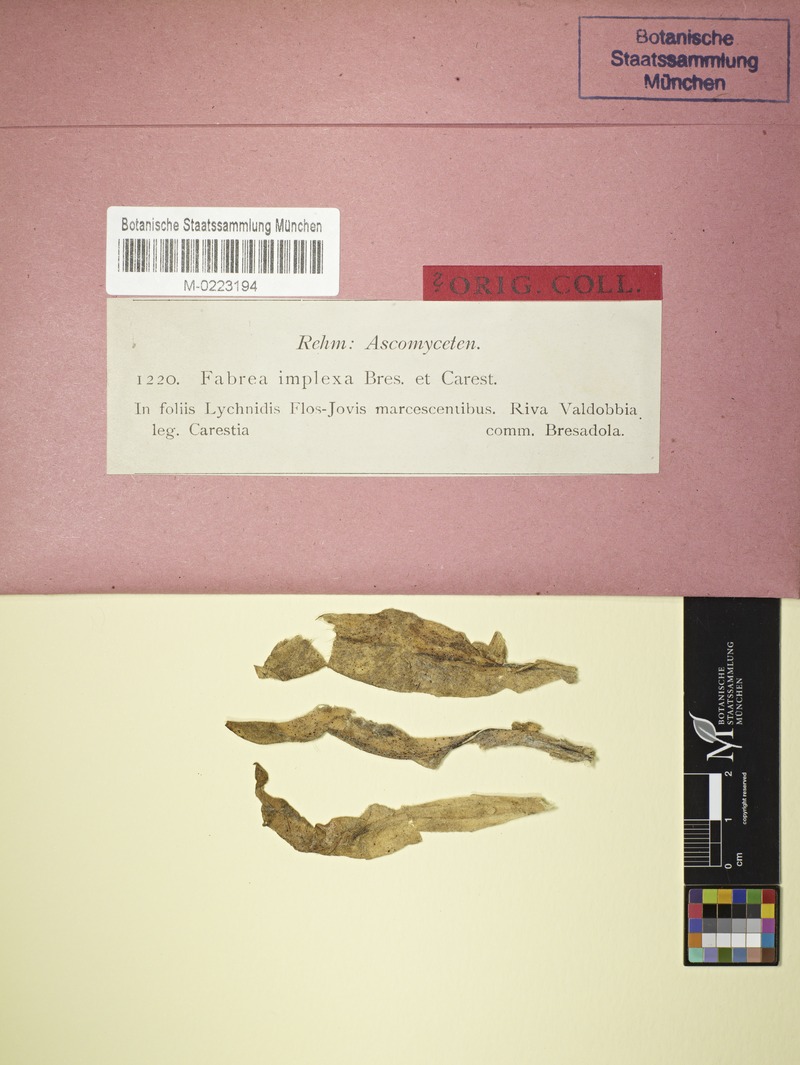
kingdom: Fungi
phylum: Ascomycota
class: Leotiomycetes
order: Helotiales
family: Drepanopezizaceae
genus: Fabraea
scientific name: Fabraea implexa
